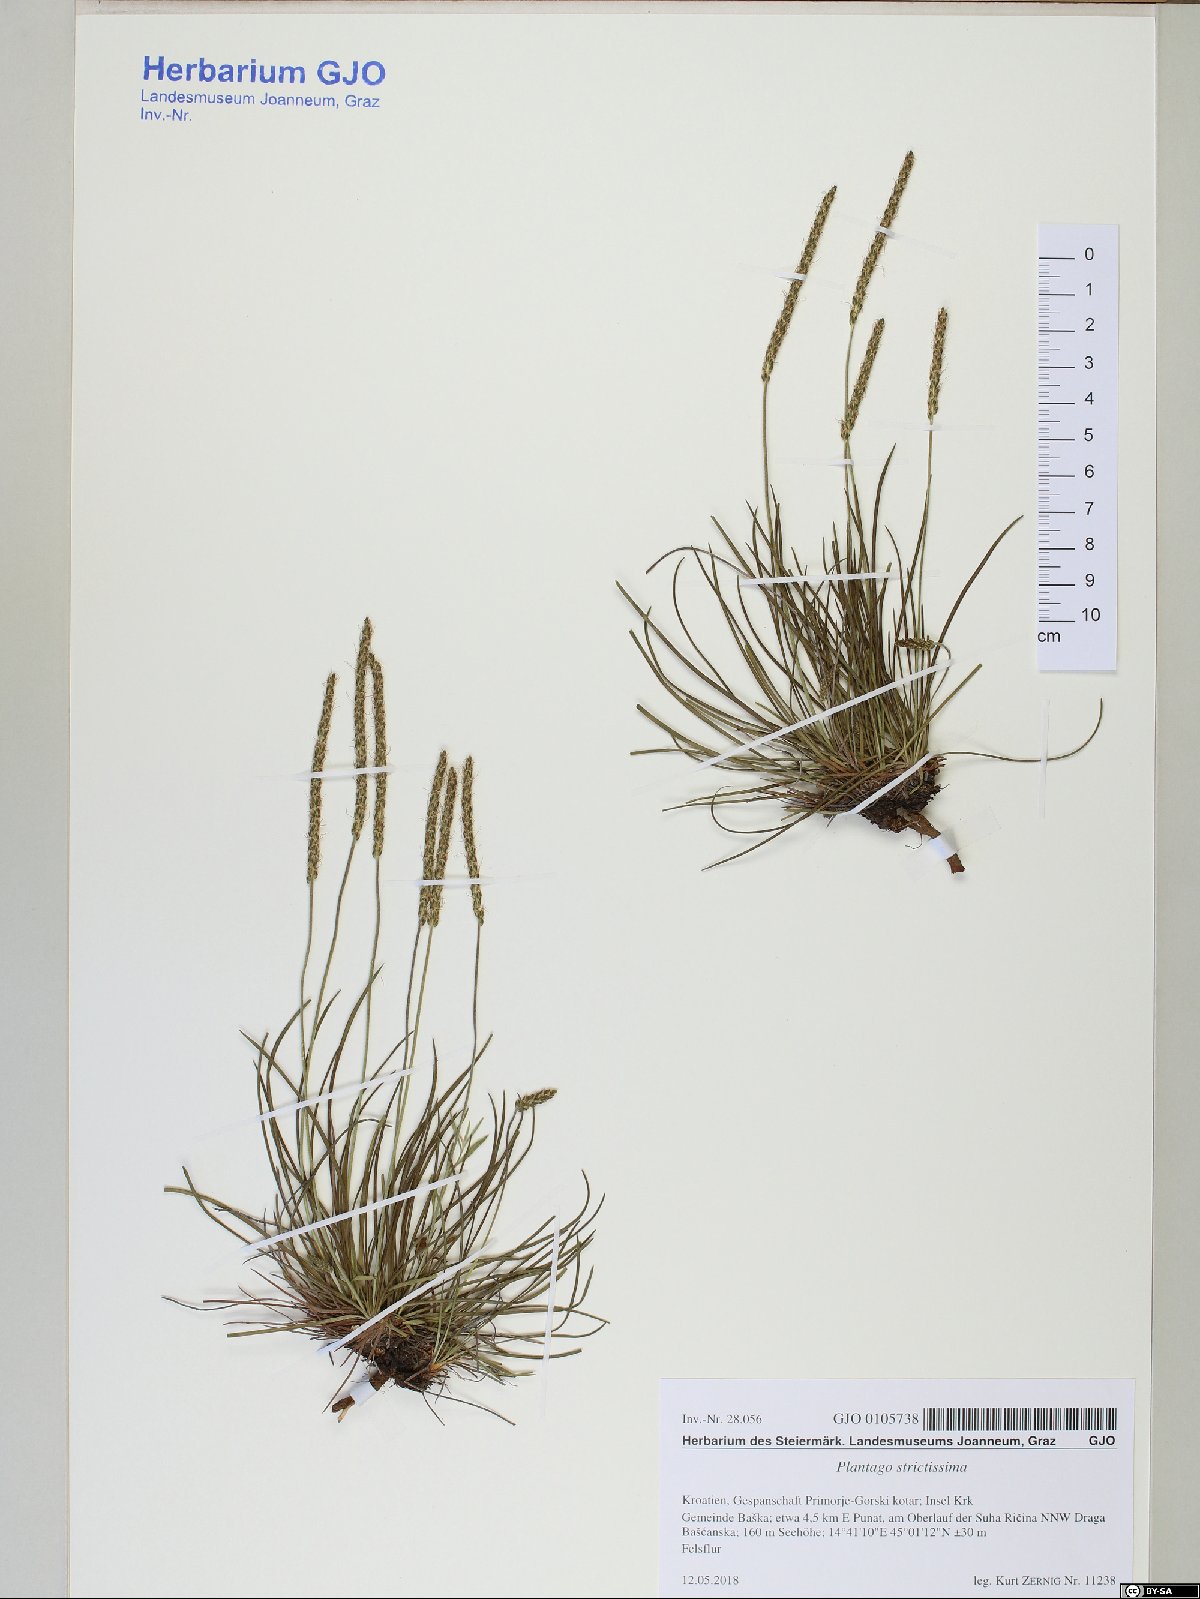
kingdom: Plantae
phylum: Tracheophyta
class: Magnoliopsida
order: Lamiales
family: Plantaginaceae
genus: Plantago
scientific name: Plantago strictissima
